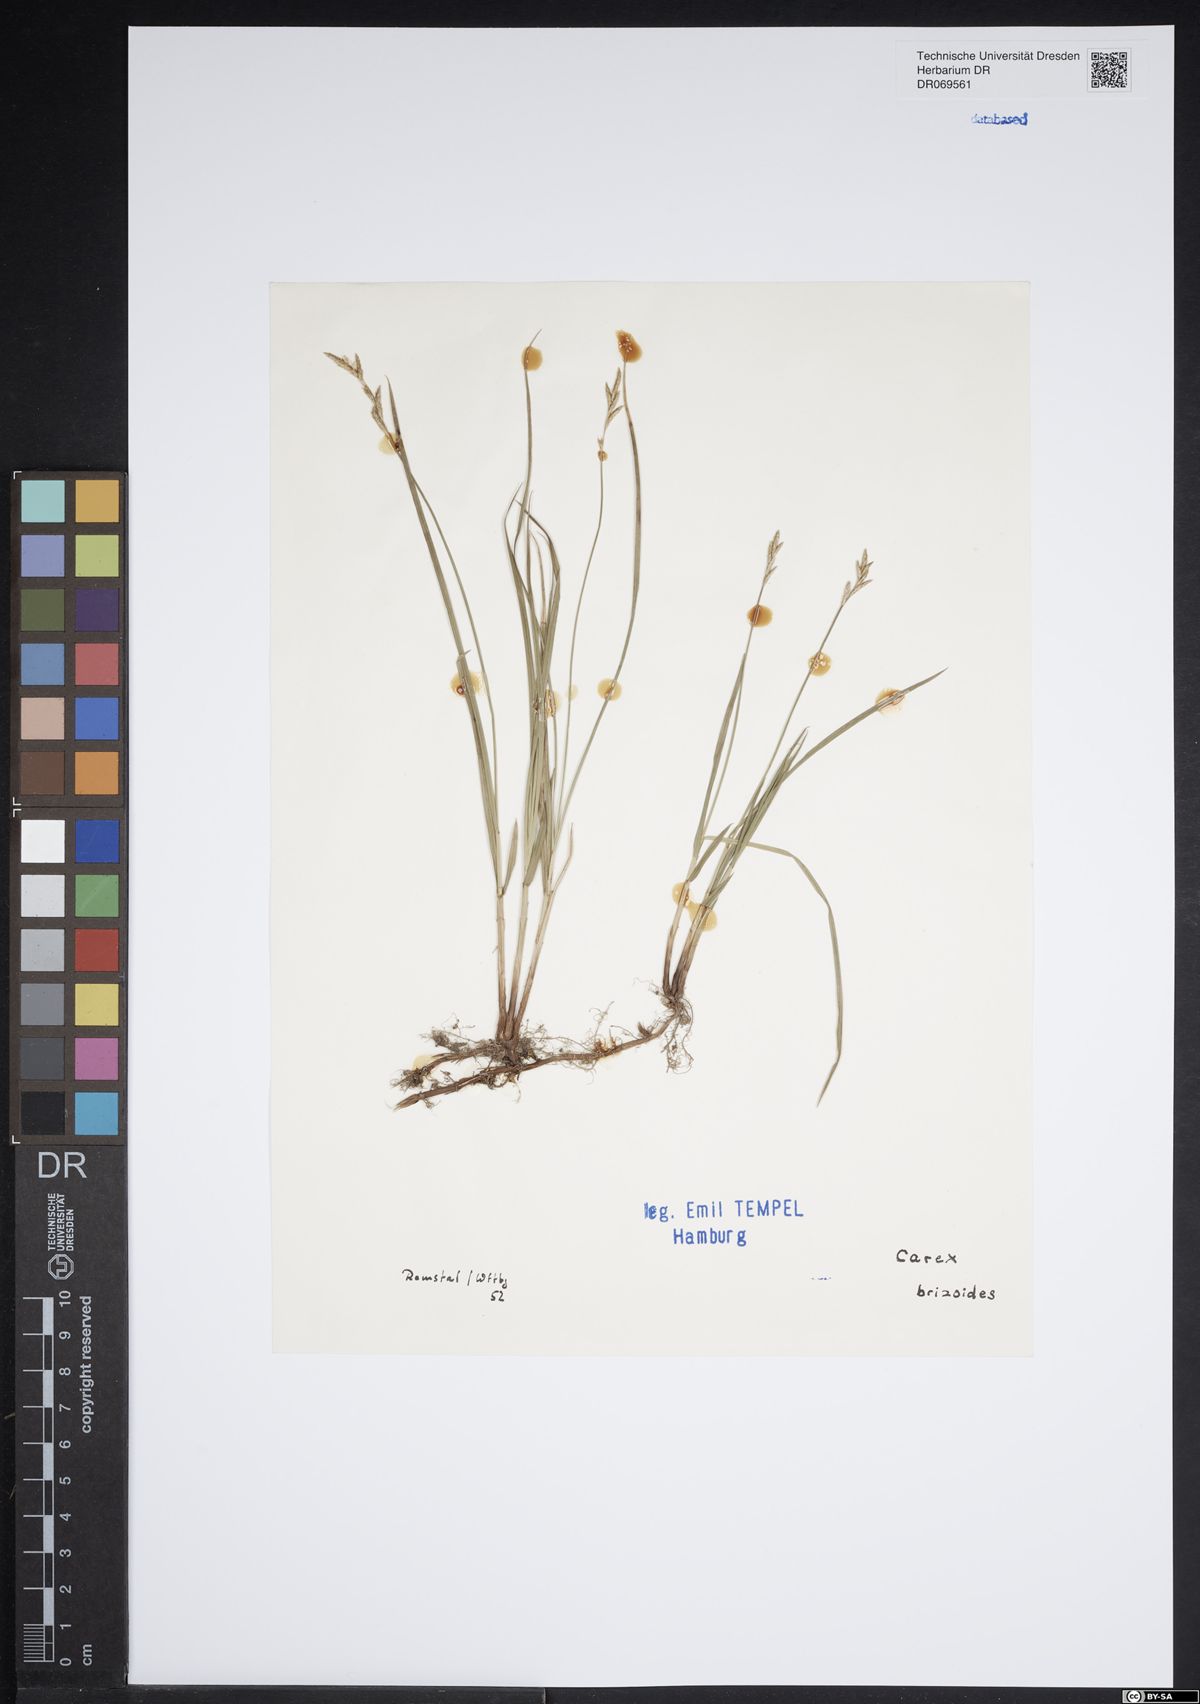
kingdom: Plantae
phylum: Tracheophyta
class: Liliopsida
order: Poales
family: Cyperaceae
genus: Carex
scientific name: Carex brizoides
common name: Quaking-grass sedge
